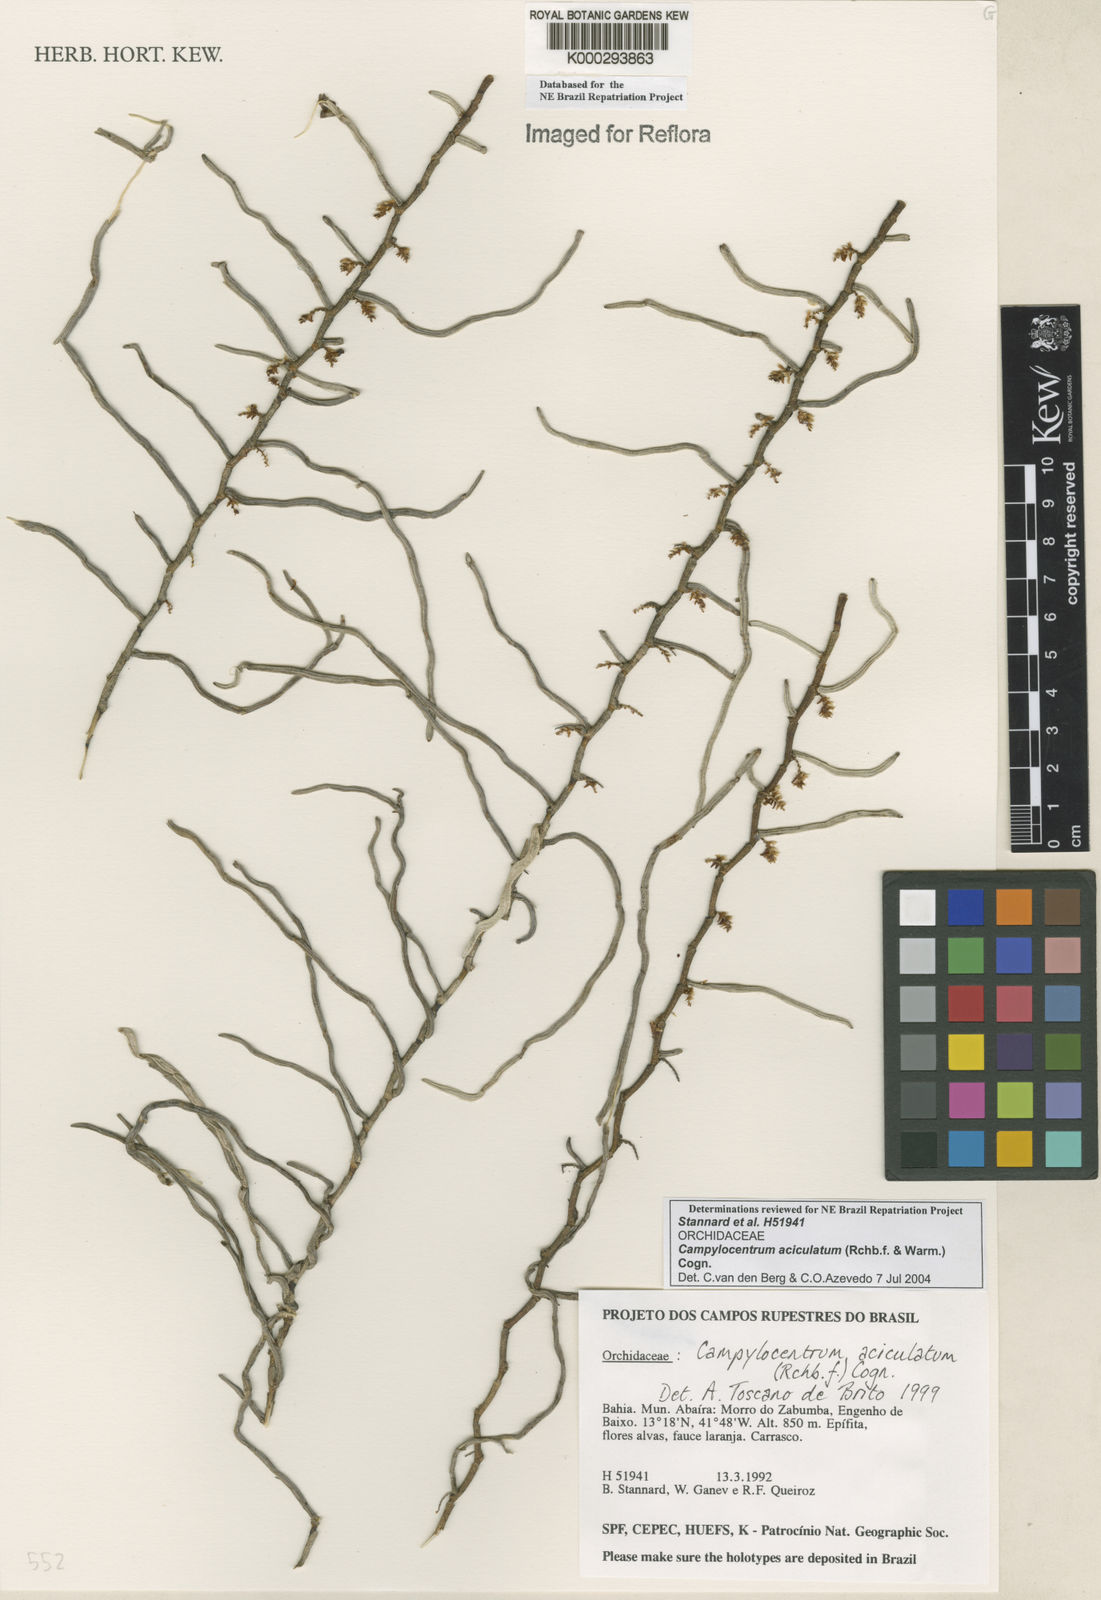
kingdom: Plantae
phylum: Tracheophyta
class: Liliopsida
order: Asparagales
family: Orchidaceae
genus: Campylocentrum
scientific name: Campylocentrum sellowii
